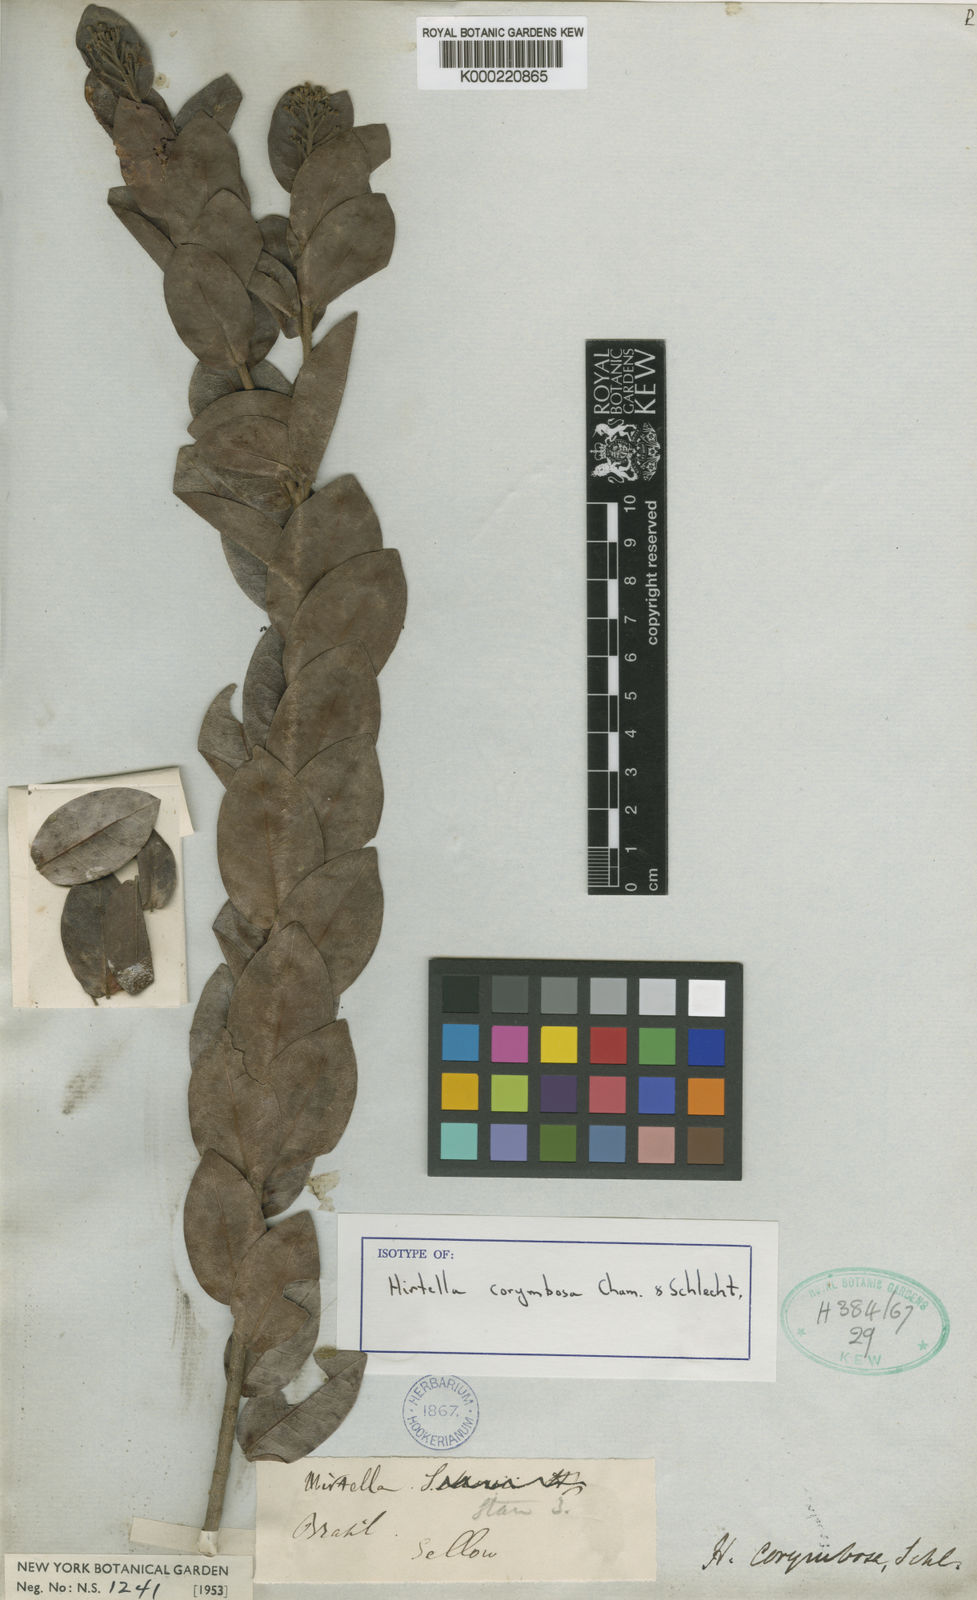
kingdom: Plantae
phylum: Tracheophyta
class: Magnoliopsida
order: Malpighiales
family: Chrysobalanaceae
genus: Hirtella
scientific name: Hirtella corymbosa
